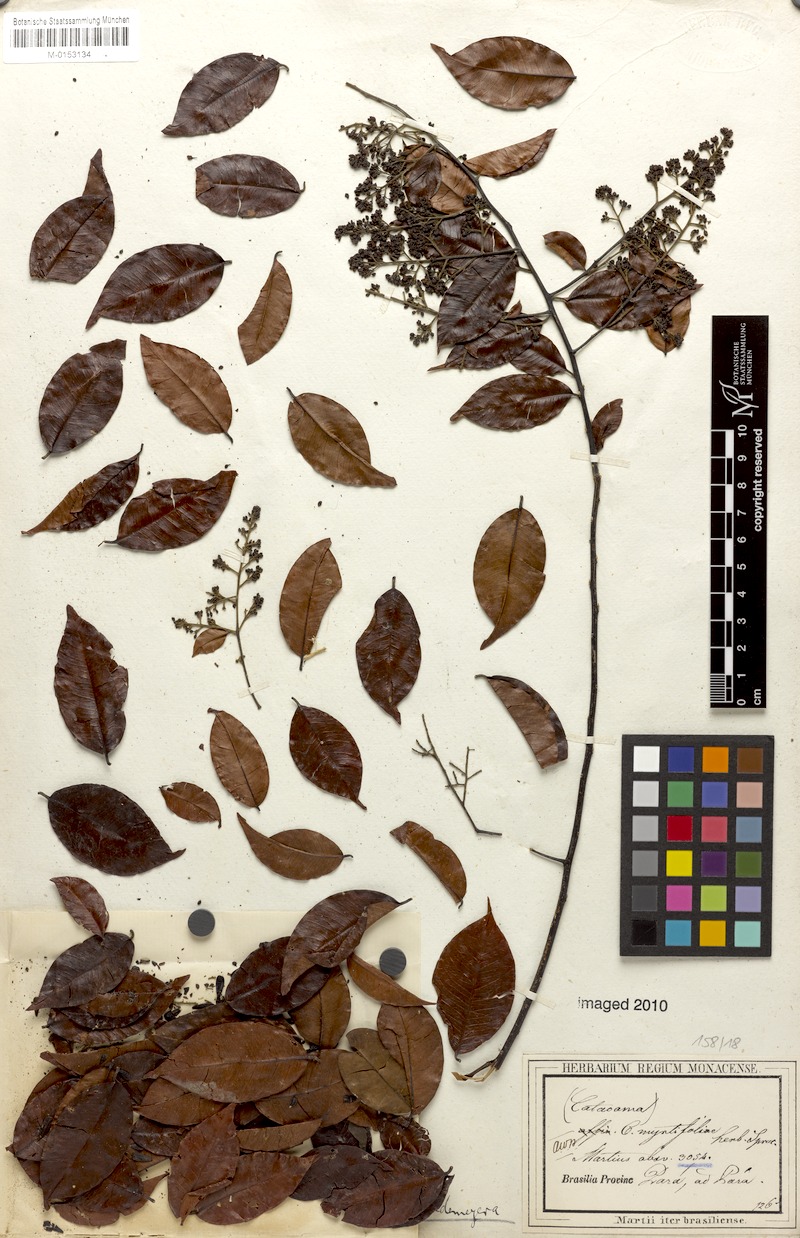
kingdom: Plantae
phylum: Tracheophyta
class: Magnoliopsida
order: Fabales
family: Polygalaceae
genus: Bredemeyera
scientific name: Bredemeyera myrtifolia
